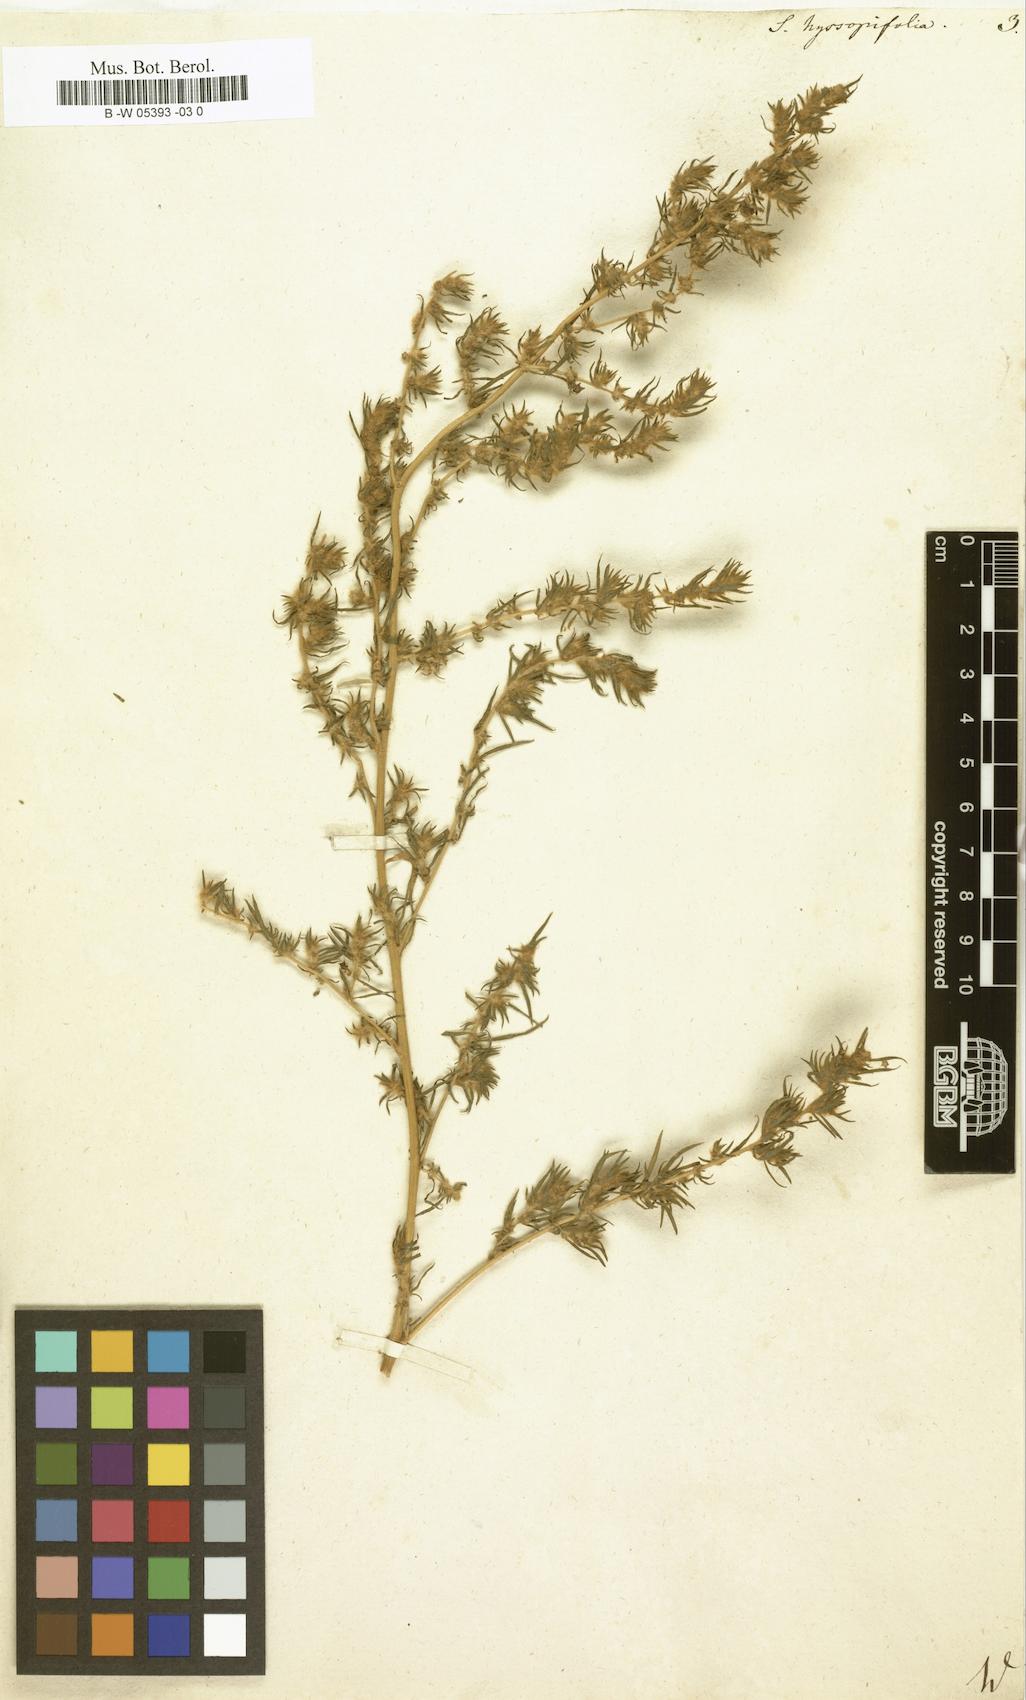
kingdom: Plantae
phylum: Tracheophyta
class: Magnoliopsida
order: Caryophyllales
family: Amaranthaceae
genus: Bassia
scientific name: Bassia hyssopifolia
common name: Fivehorn smotherweed
